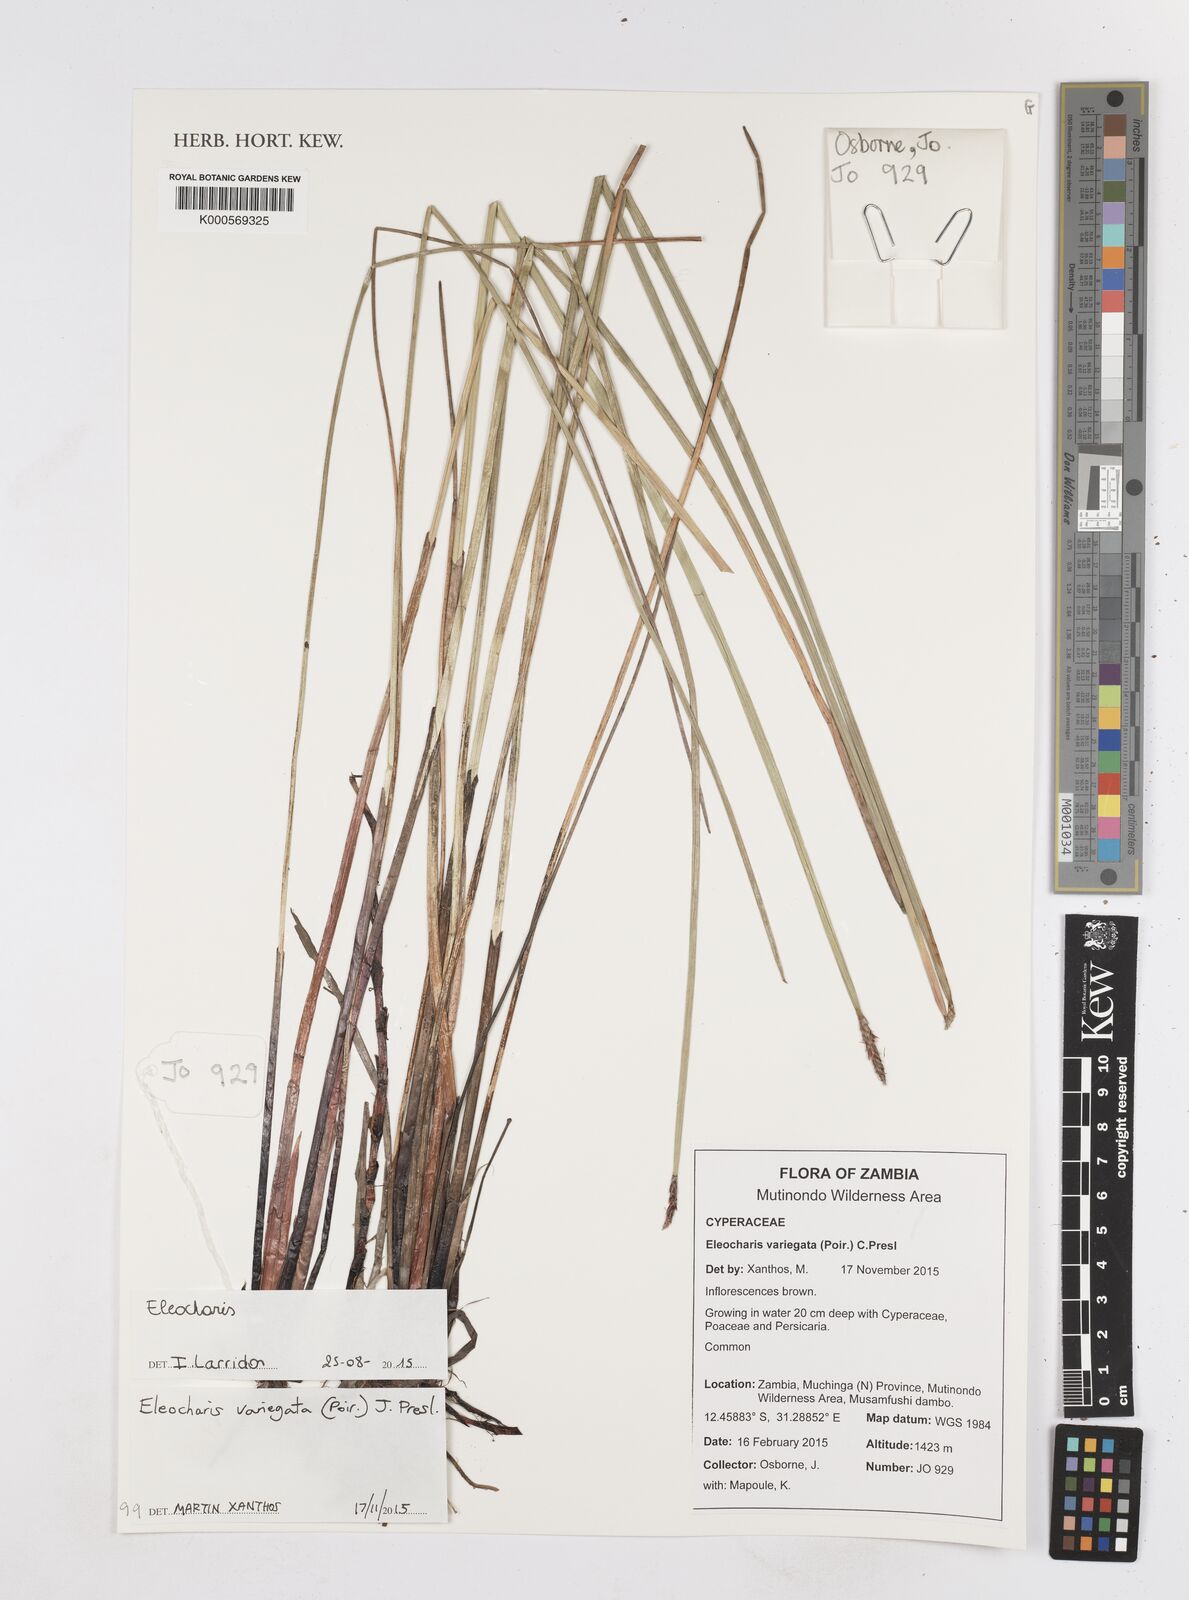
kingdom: Plantae
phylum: Tracheophyta
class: Liliopsida
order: Poales
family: Cyperaceae
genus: Eleocharis
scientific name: Eleocharis variegata
